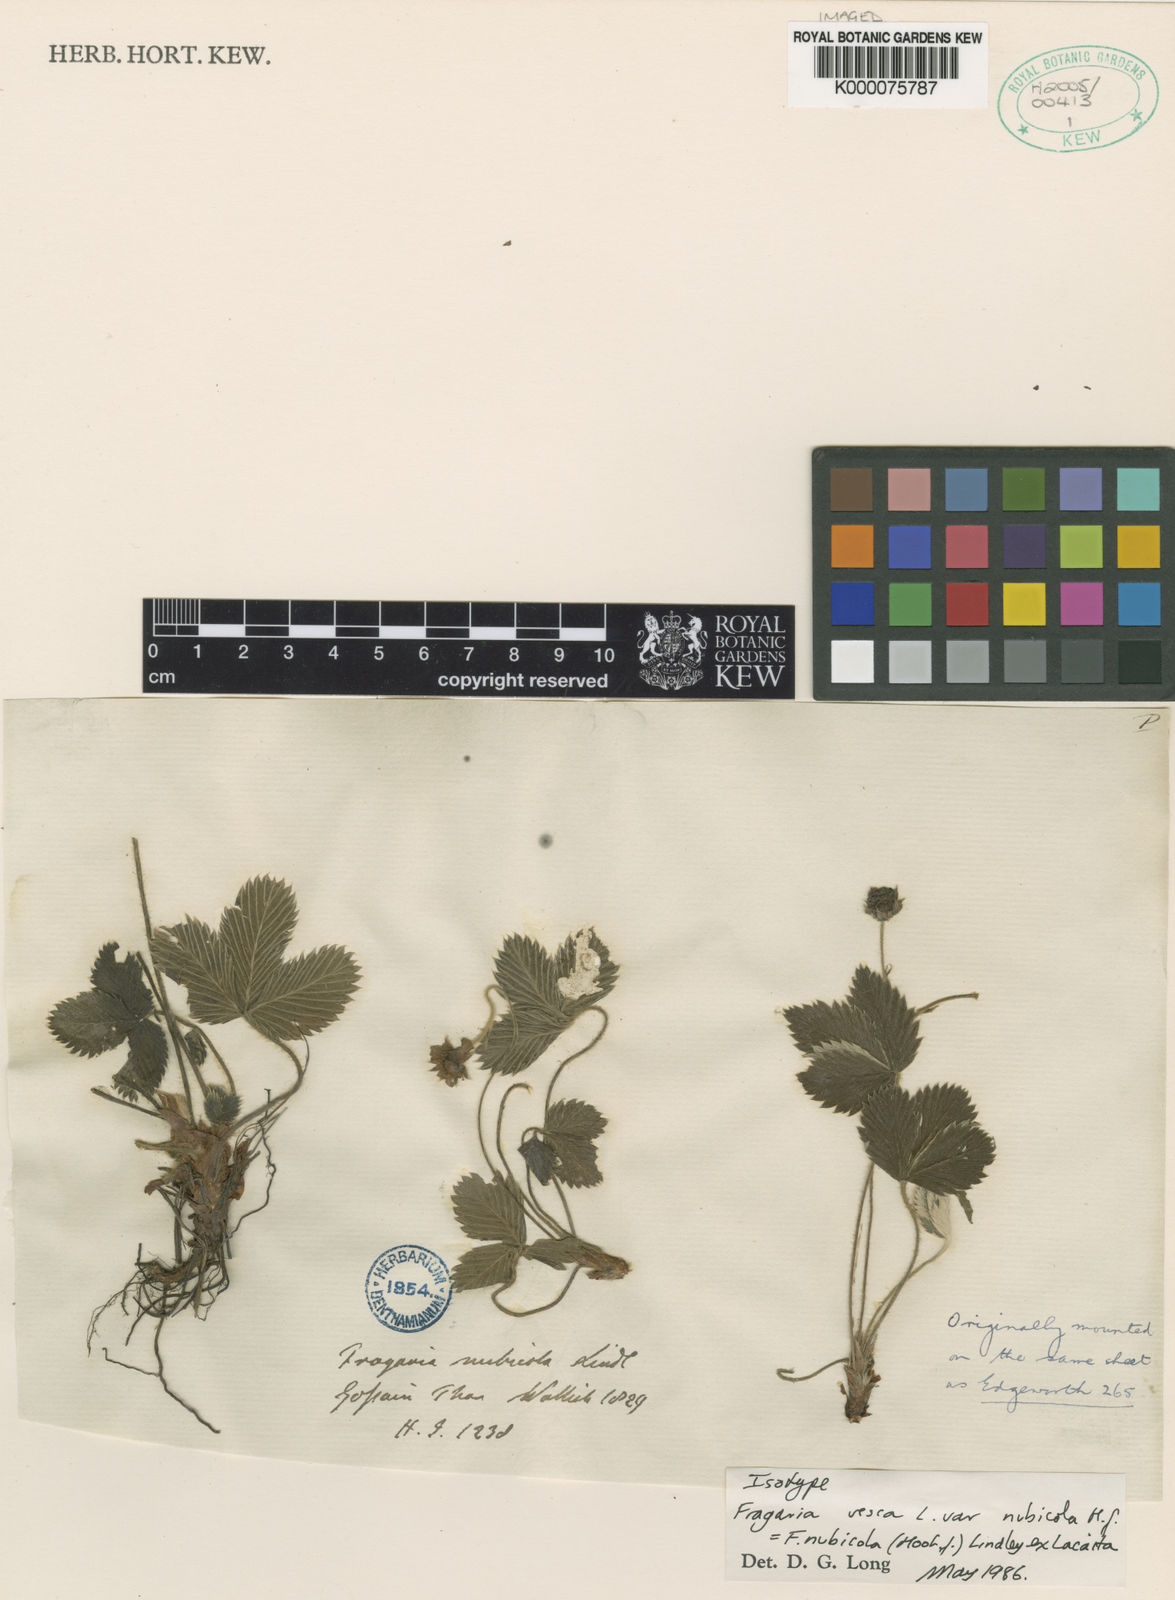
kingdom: Plantae
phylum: Tracheophyta
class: Magnoliopsida
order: Rosales
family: Rosaceae
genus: Fragaria
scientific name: Fragaria nubicola
